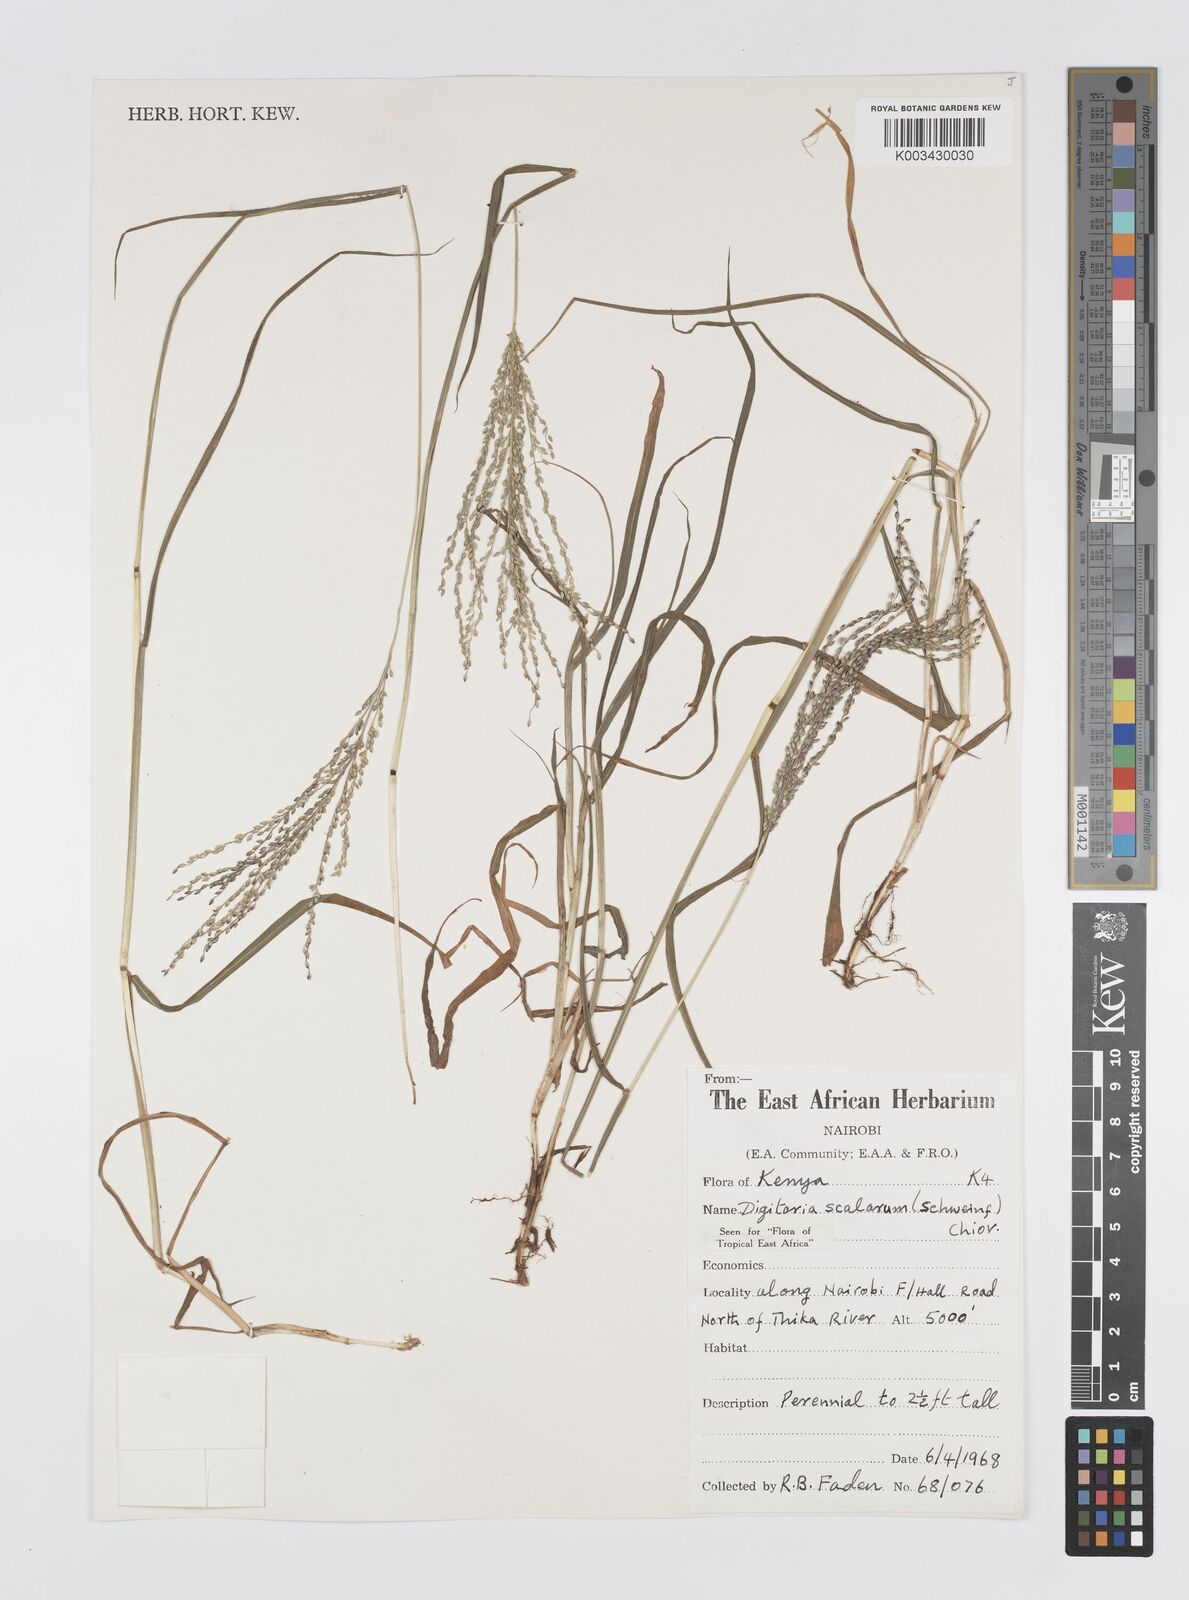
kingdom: Plantae
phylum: Tracheophyta
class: Liliopsida
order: Poales
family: Poaceae
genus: Digitaria
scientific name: Digitaria abyssinica
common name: African couchgrass
